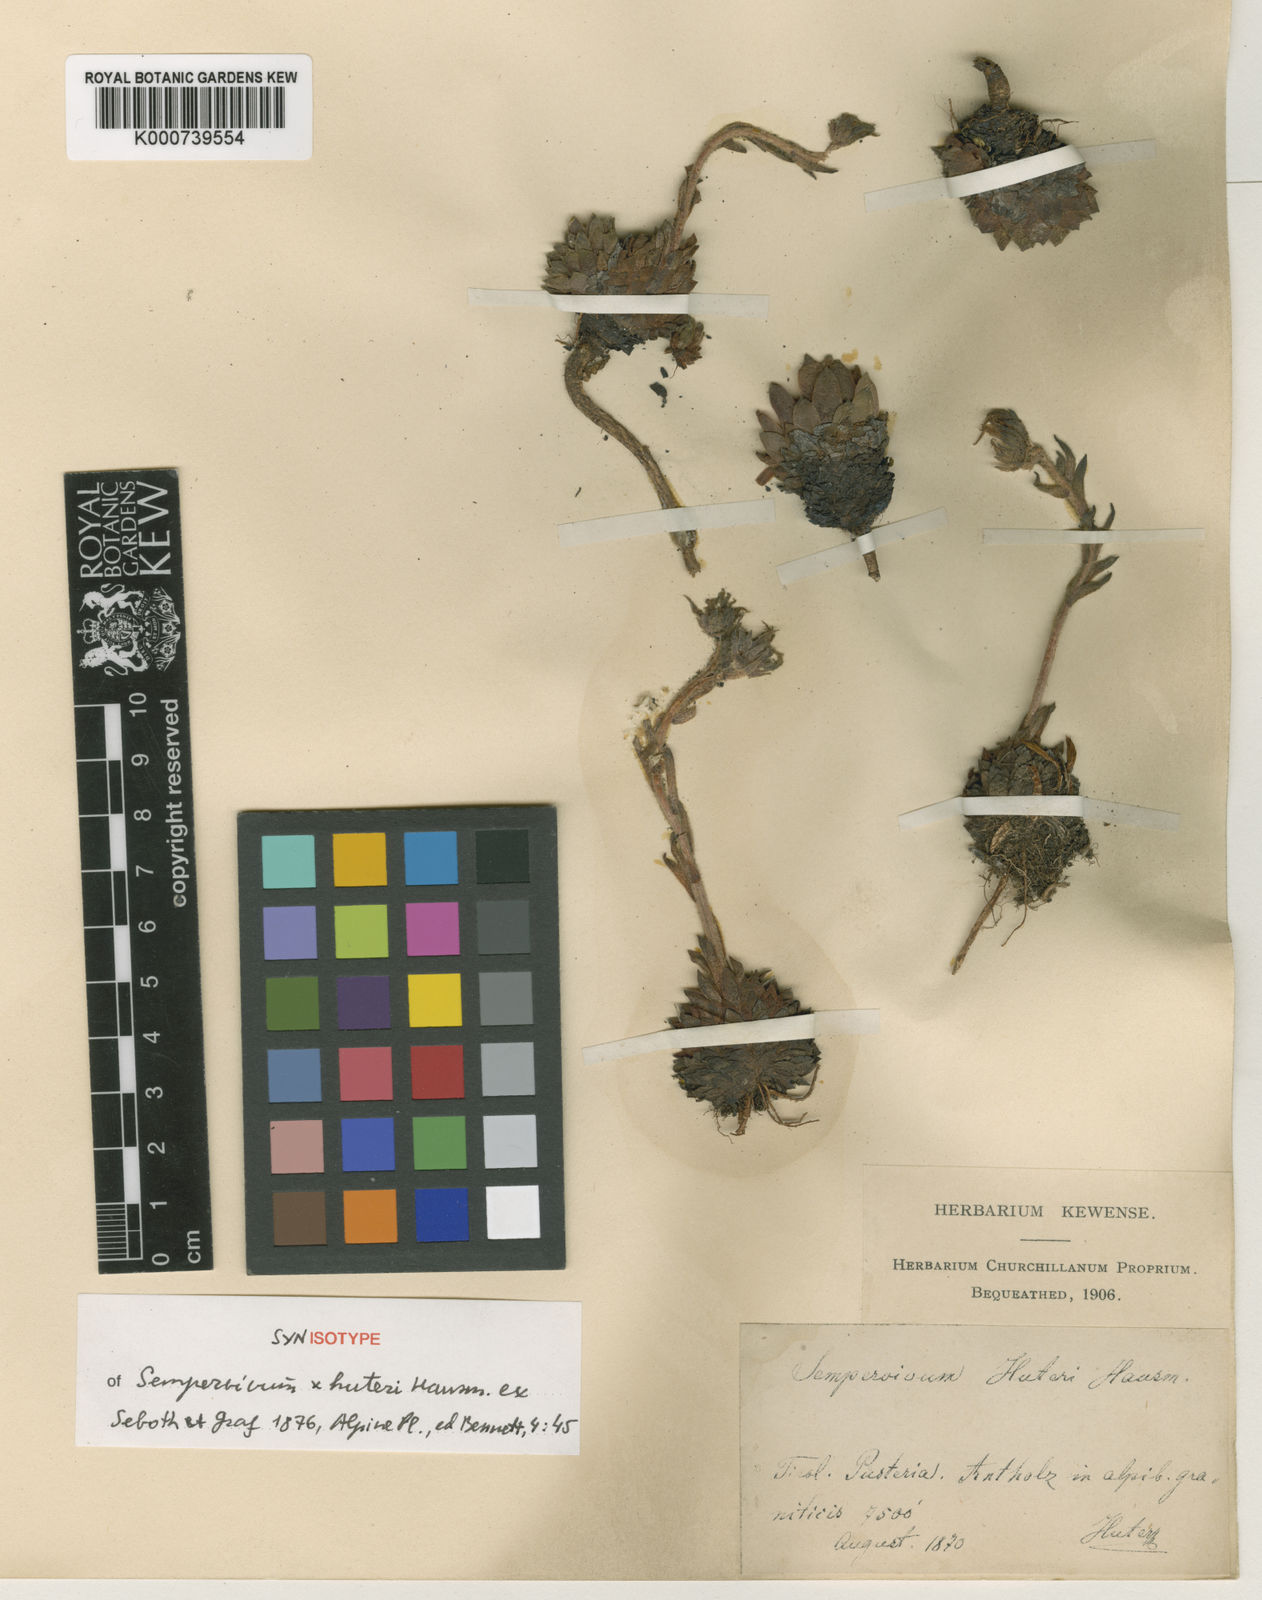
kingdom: Plantae
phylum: Tracheophyta
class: Magnoliopsida
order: Saxifragales
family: Crassulaceae
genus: Sempervivum
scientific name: Sempervivum rupicola
